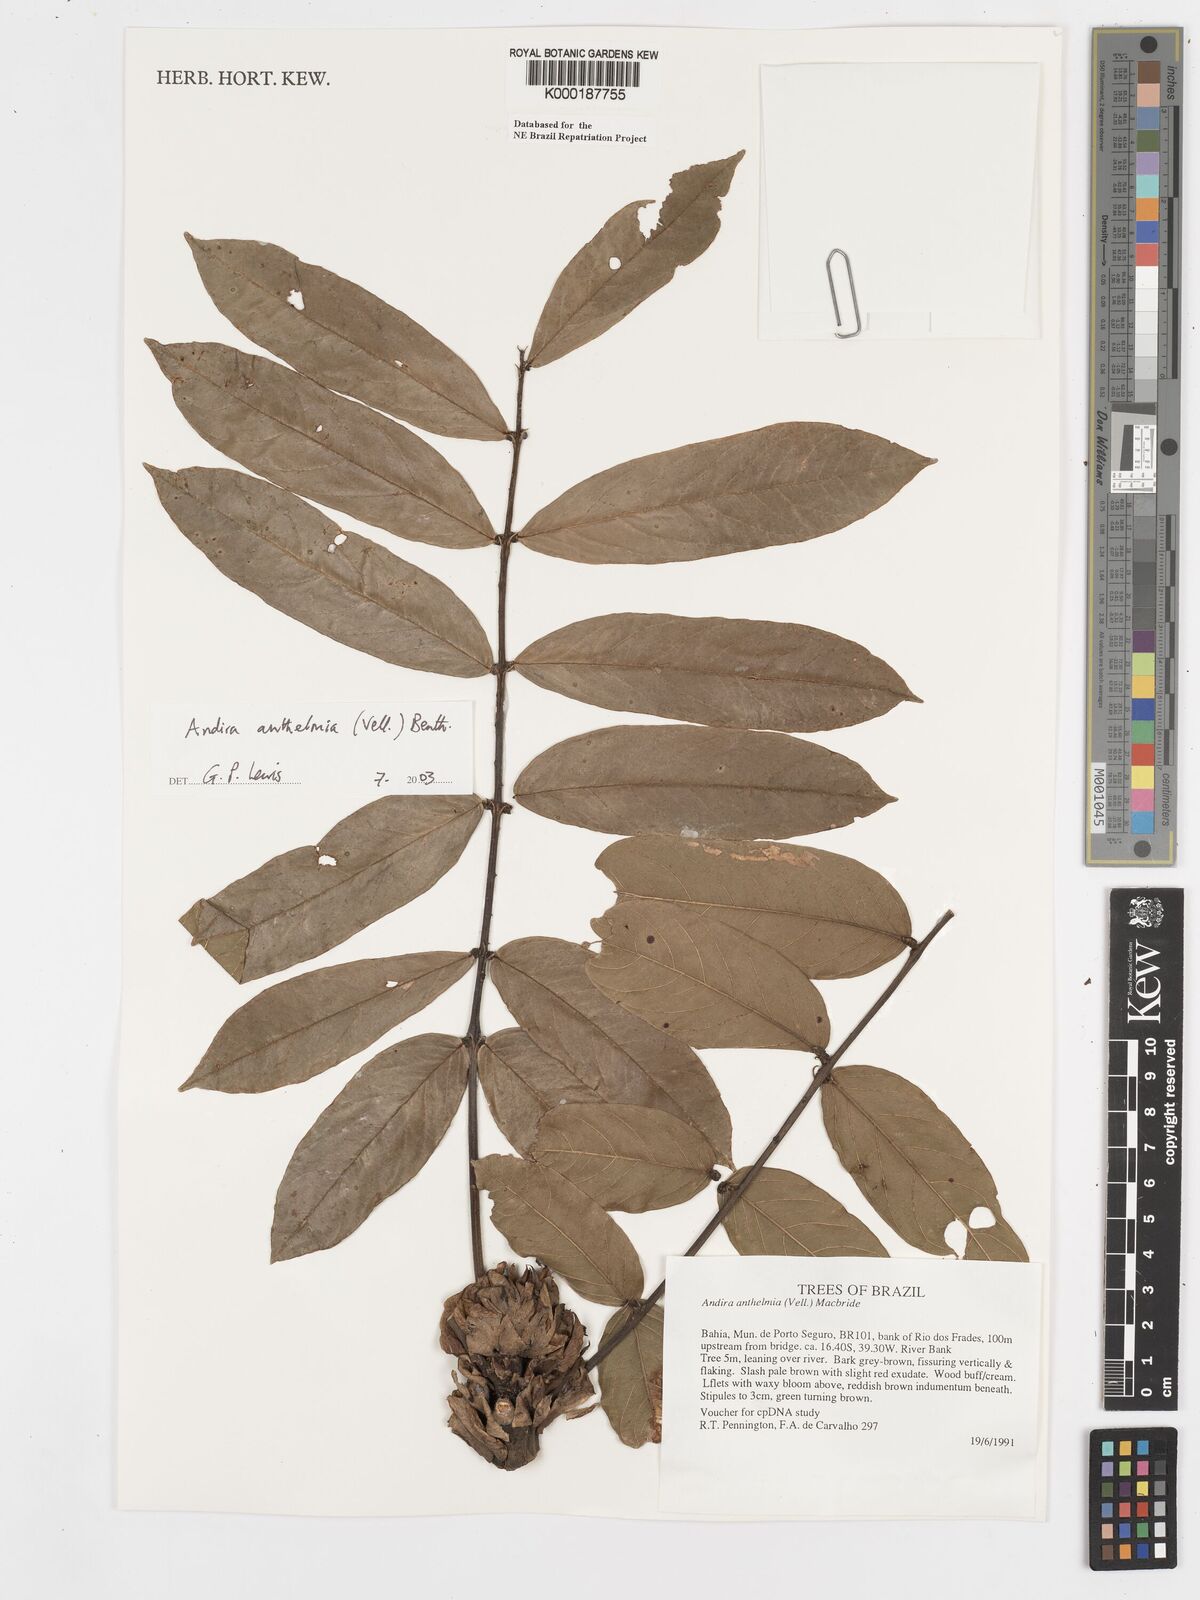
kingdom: Plantae
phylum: Tracheophyta
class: Magnoliopsida
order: Fabales
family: Fabaceae
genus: Andira
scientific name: Andira
